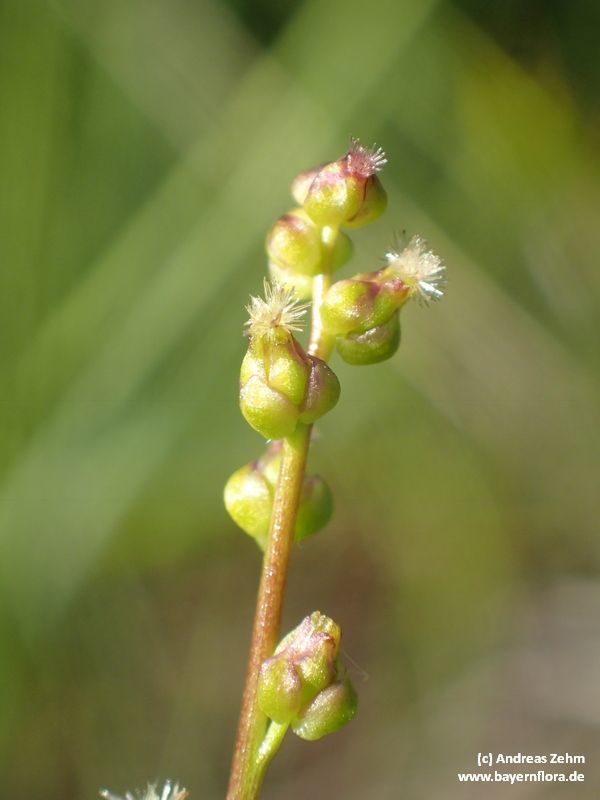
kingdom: Plantae
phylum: Tracheophyta
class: Liliopsida
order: Alismatales
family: Juncaginaceae
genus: Triglochin
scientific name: Triglochin palustris
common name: Marsh arrowgrass
